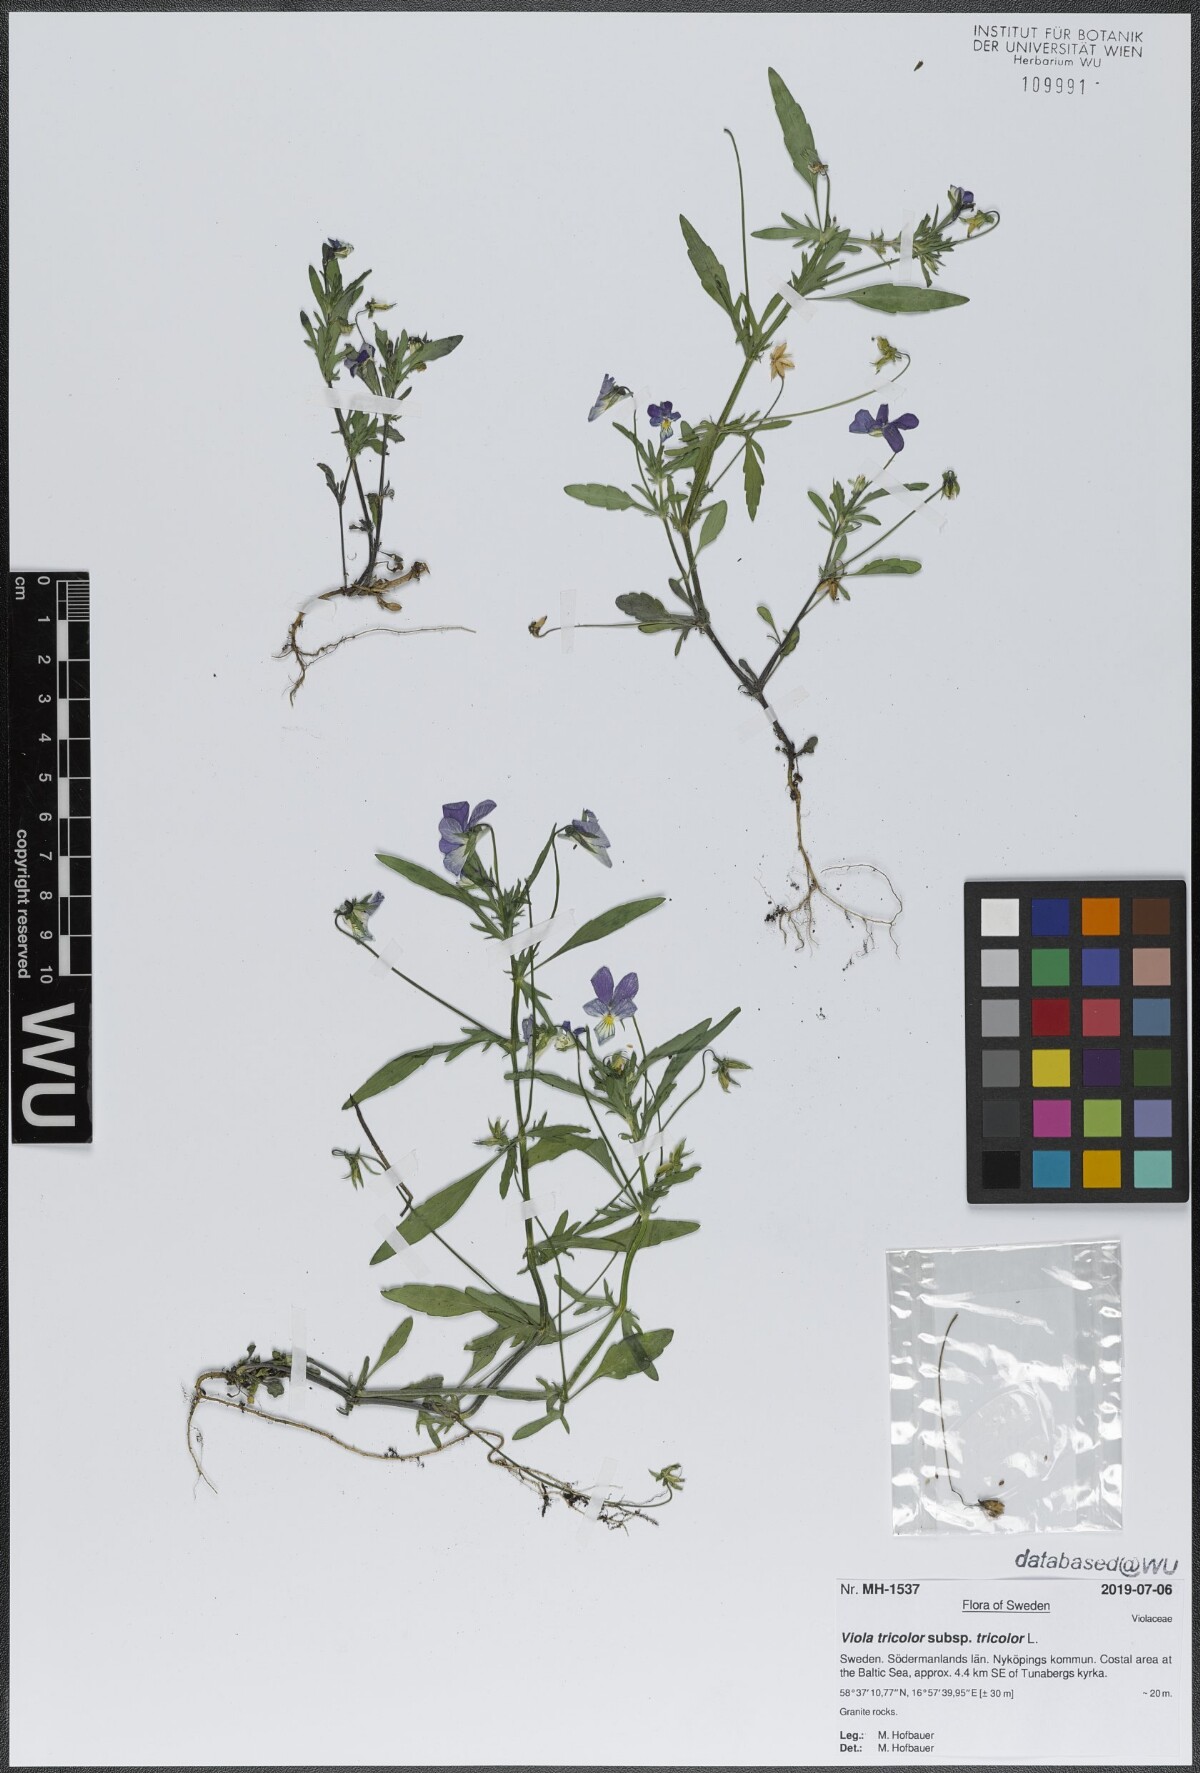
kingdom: Plantae
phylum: Tracheophyta
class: Magnoliopsida
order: Malpighiales
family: Violaceae
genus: Viola
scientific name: Viola tricolor
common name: Pansy
